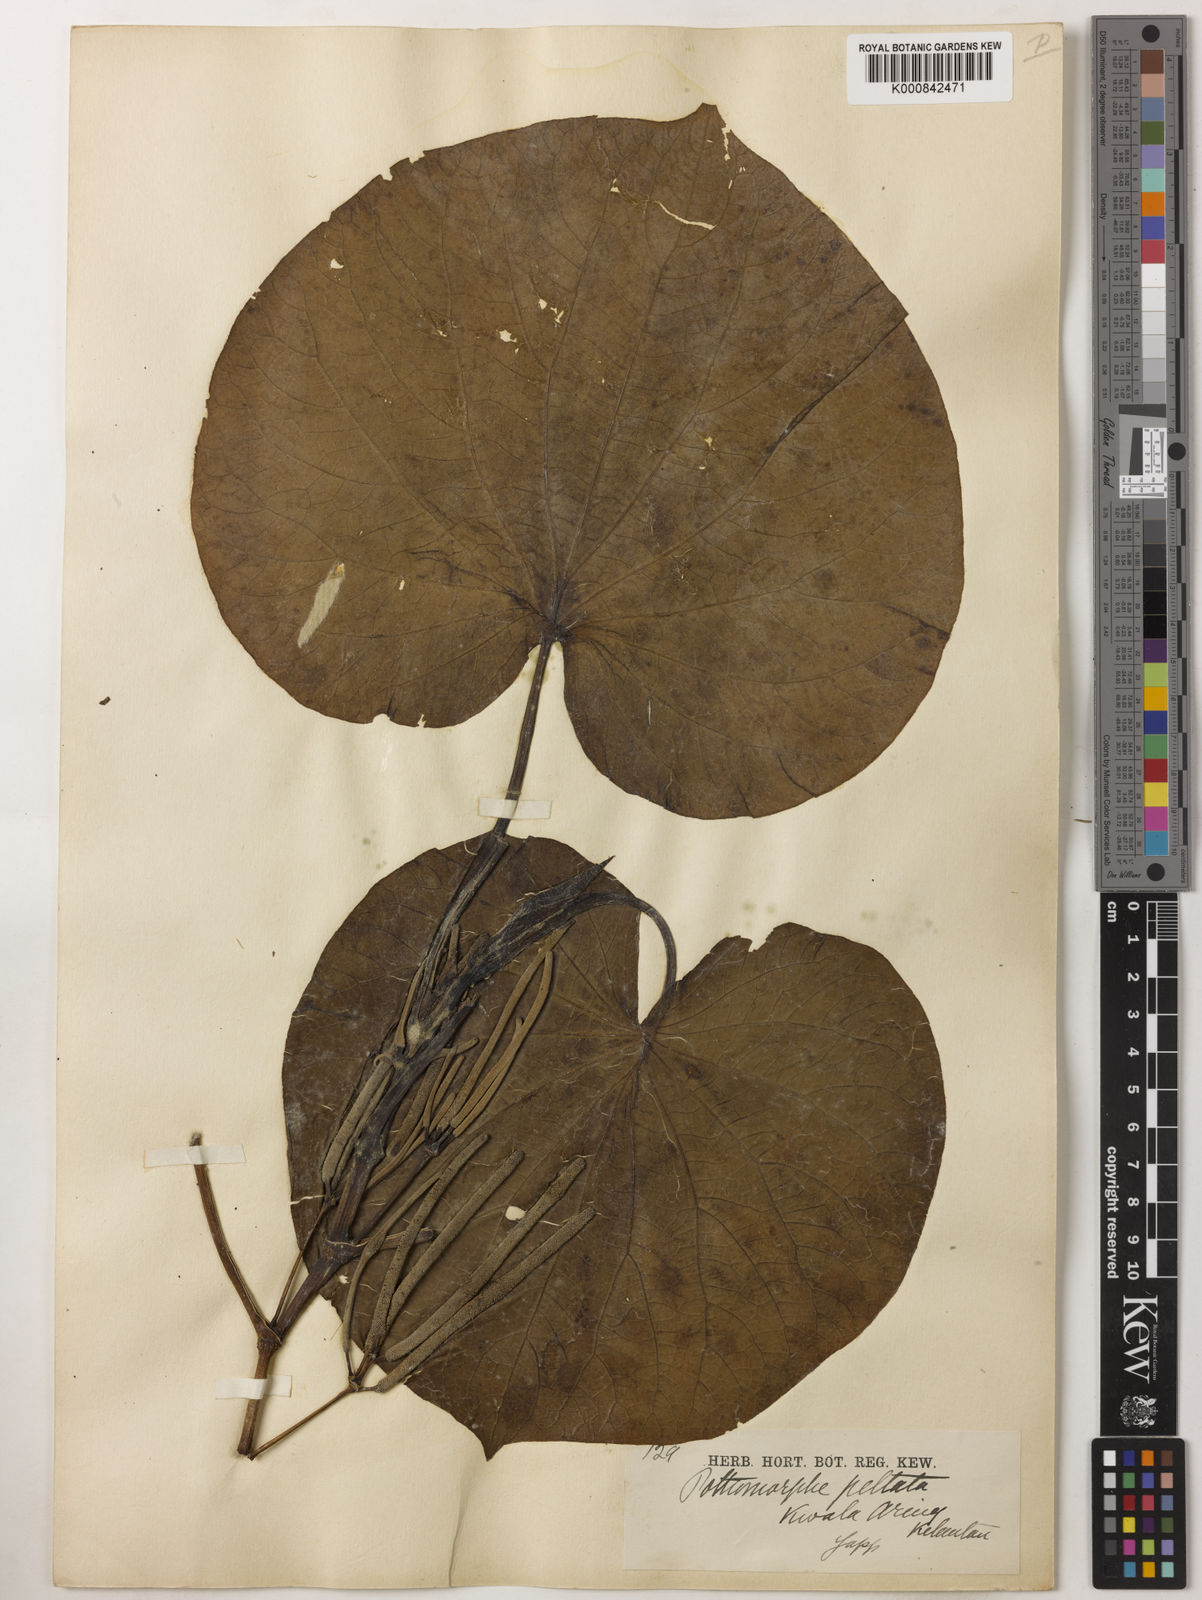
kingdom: Plantae
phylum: Tracheophyta
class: Magnoliopsida
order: Piperales
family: Piperaceae
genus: Piper
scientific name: Piper umbellatum
